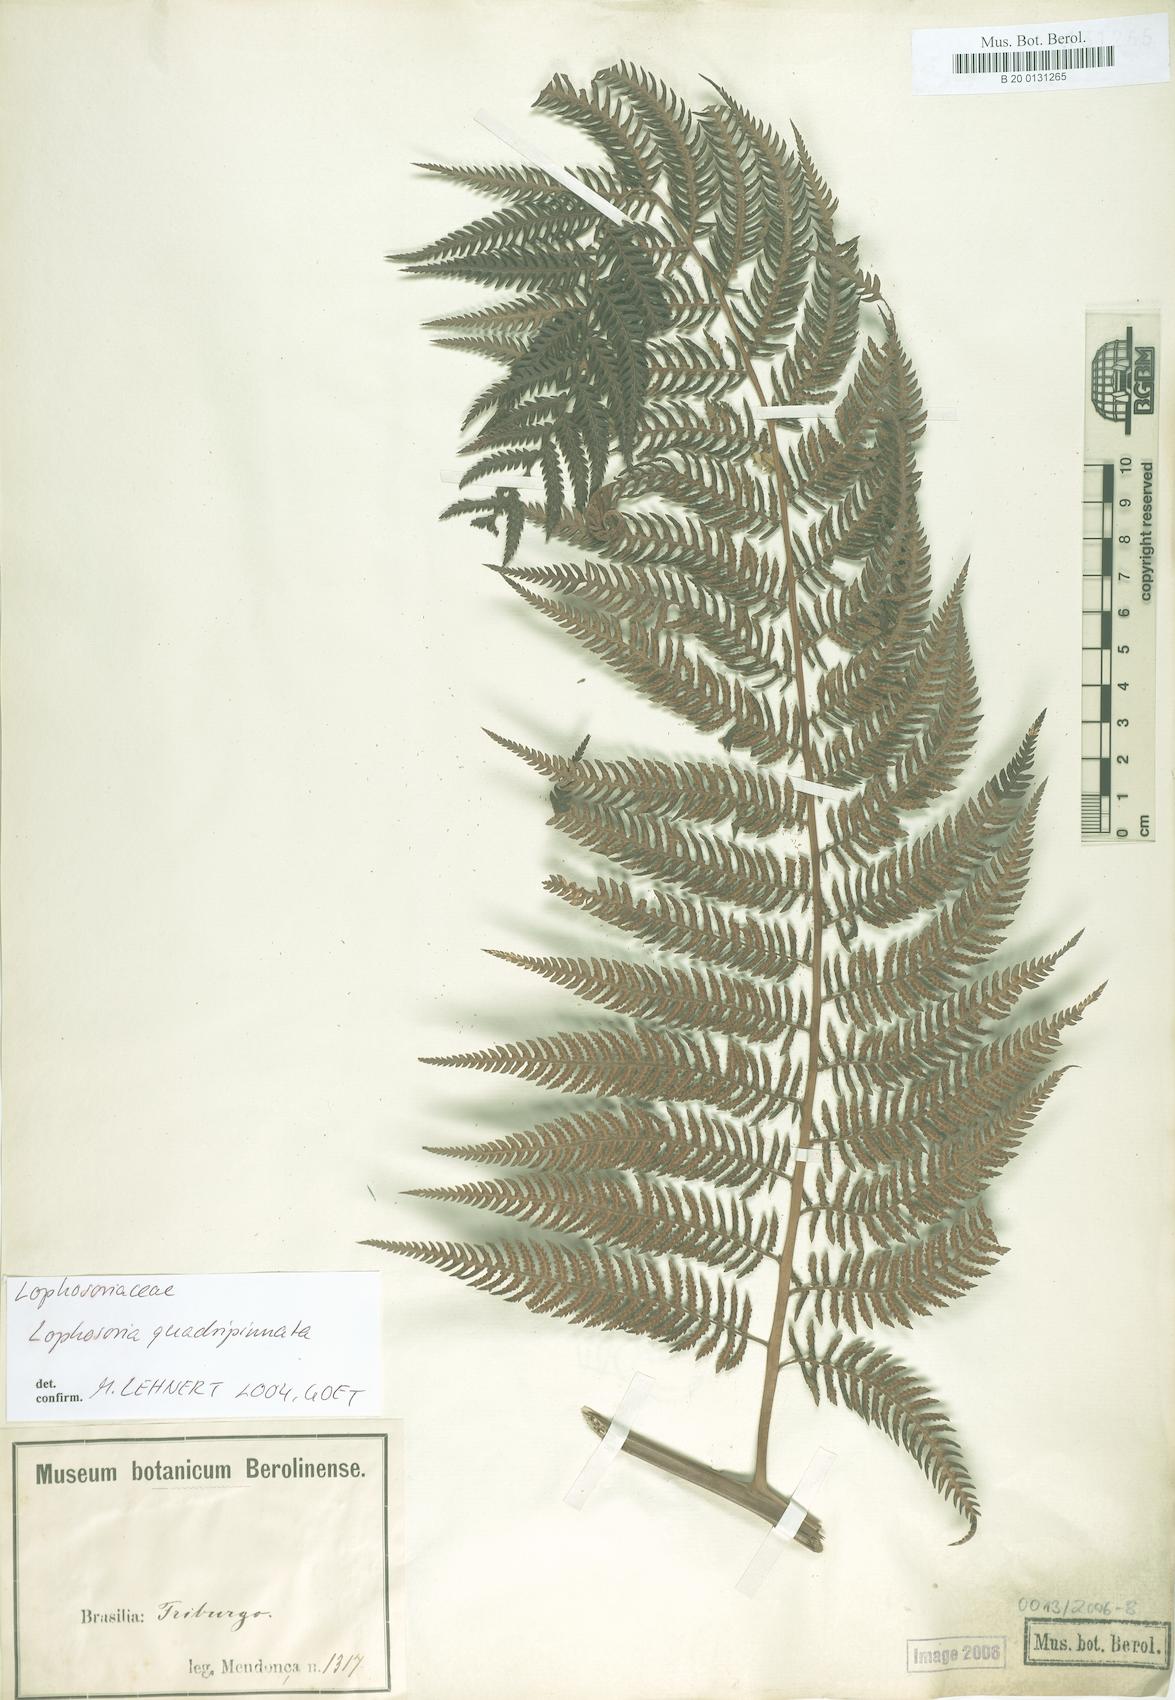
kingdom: Plantae
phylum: Tracheophyta
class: Polypodiopsida
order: Cyatheales
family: Dicksoniaceae
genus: Lophosoria
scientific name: Lophosoria quadripinnata
